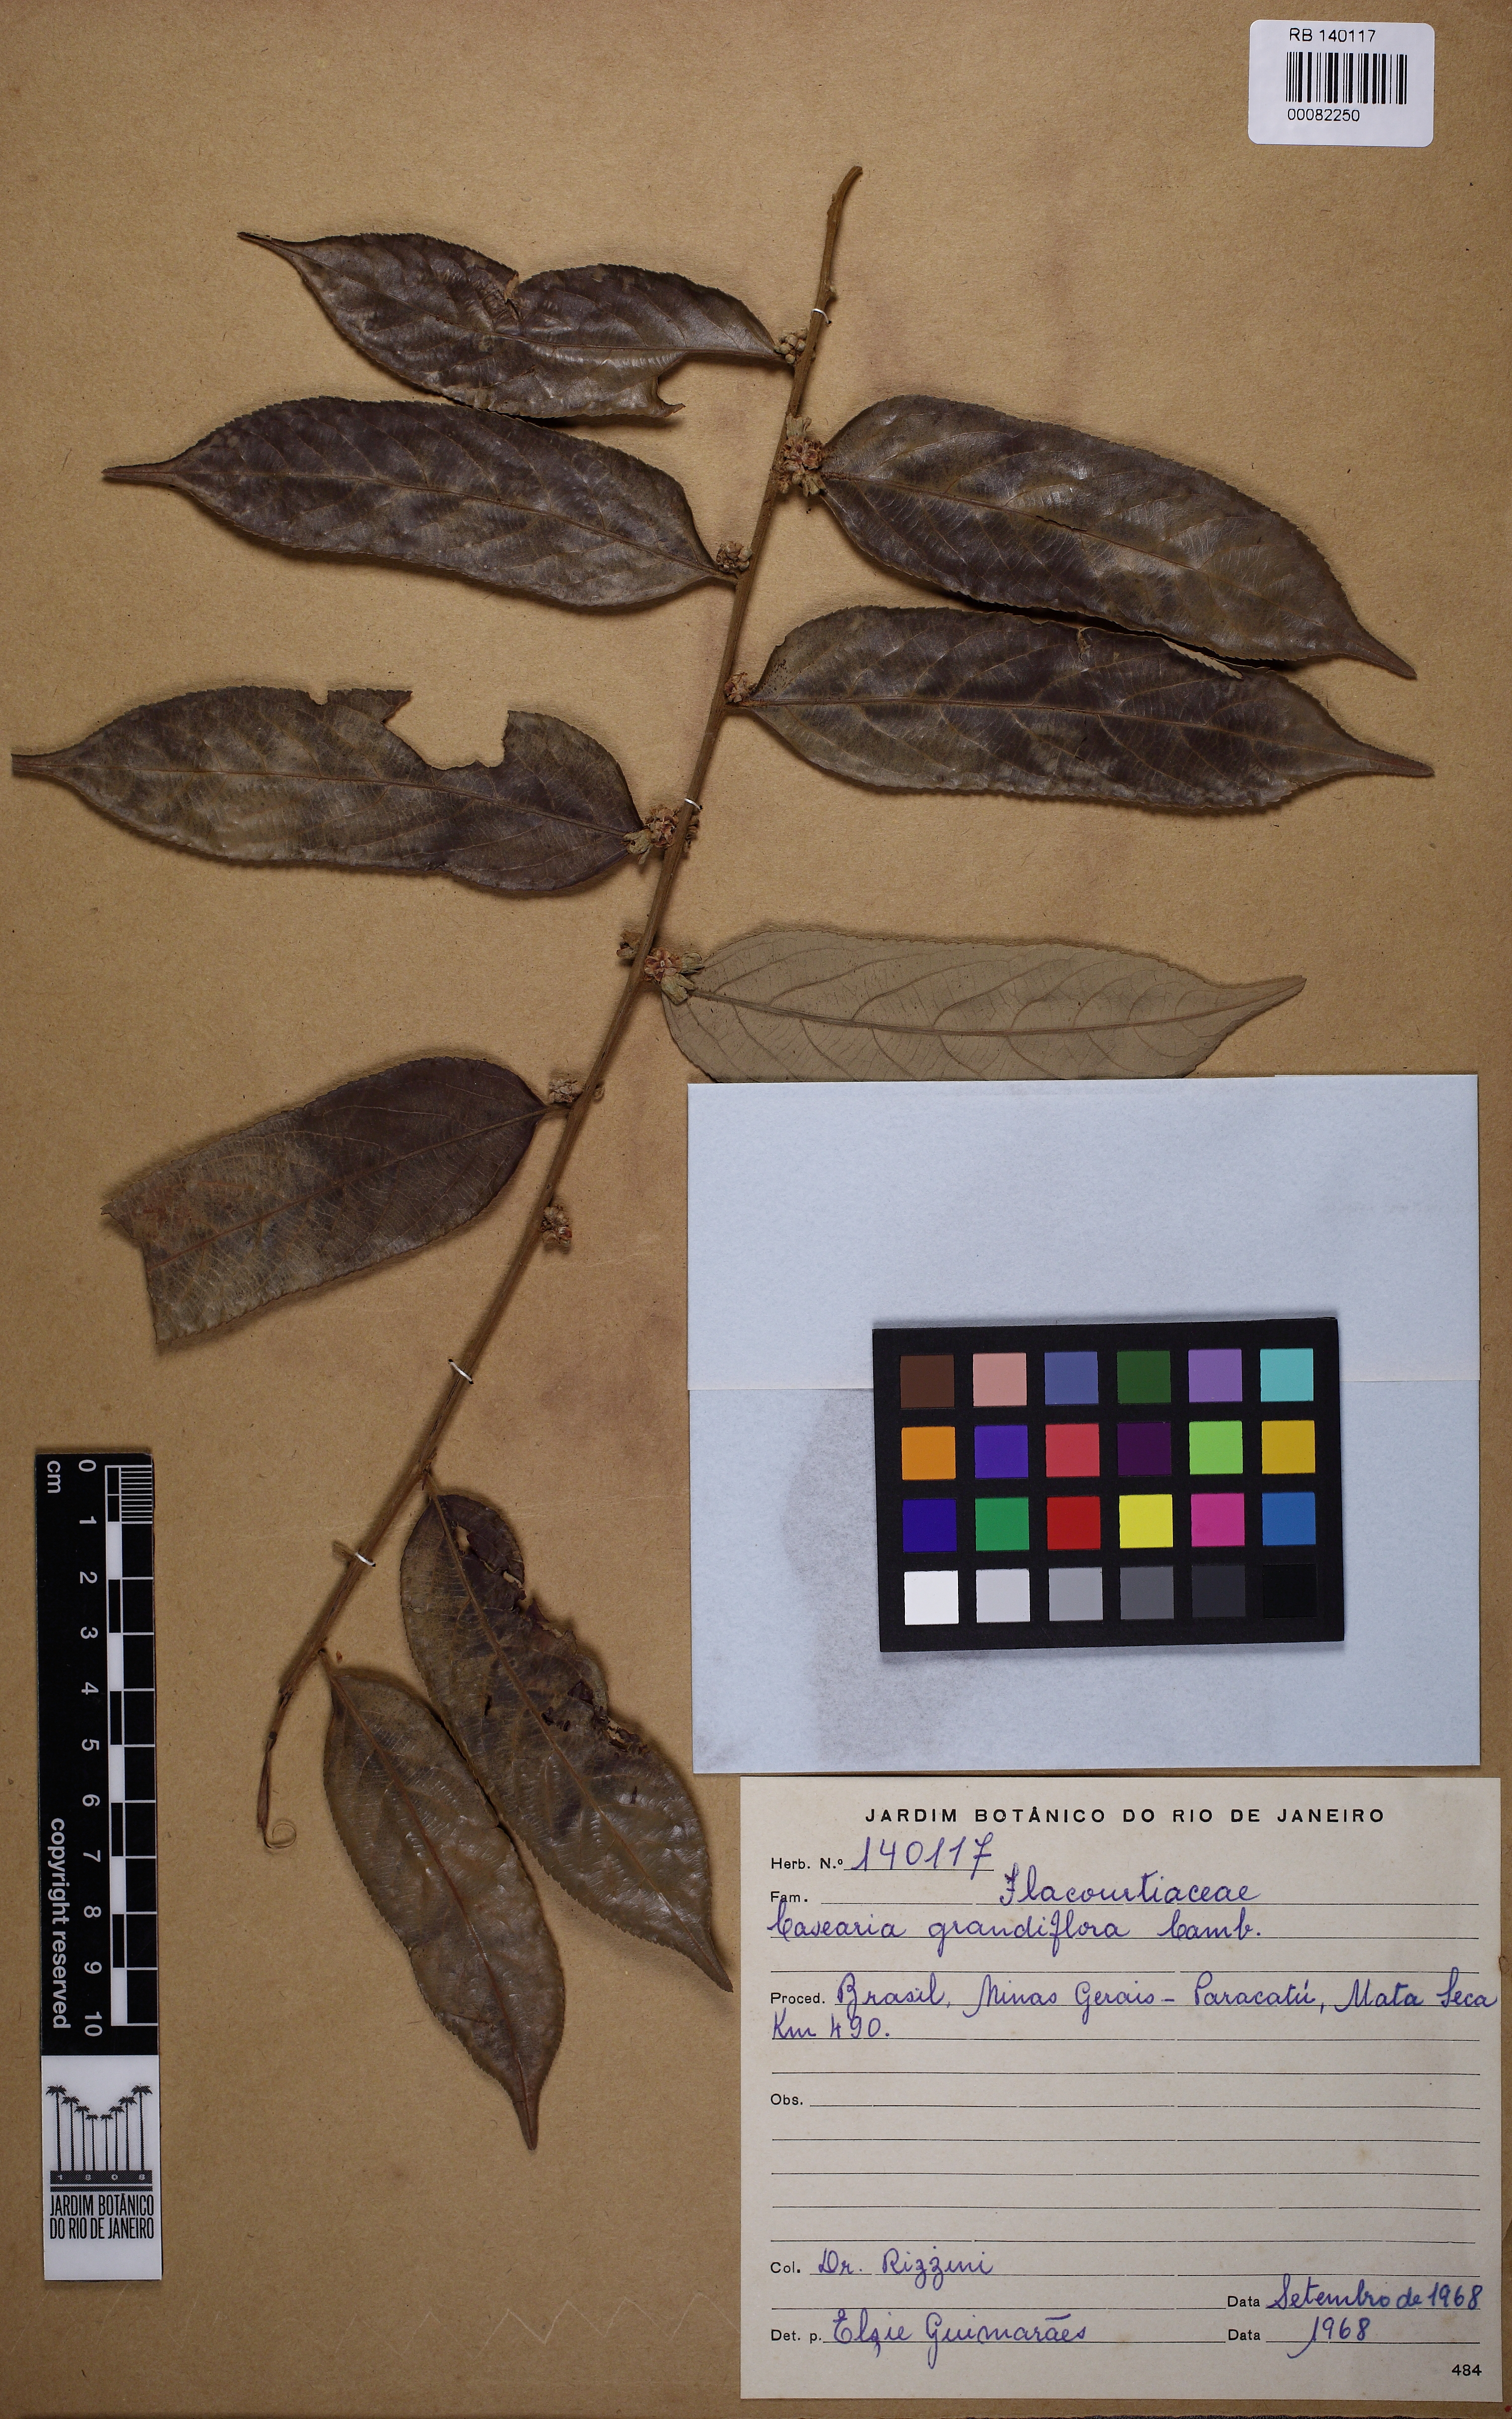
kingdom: Plantae
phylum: Tracheophyta
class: Magnoliopsida
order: Malpighiales
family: Salicaceae
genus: Casearia
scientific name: Casearia grandiflora
